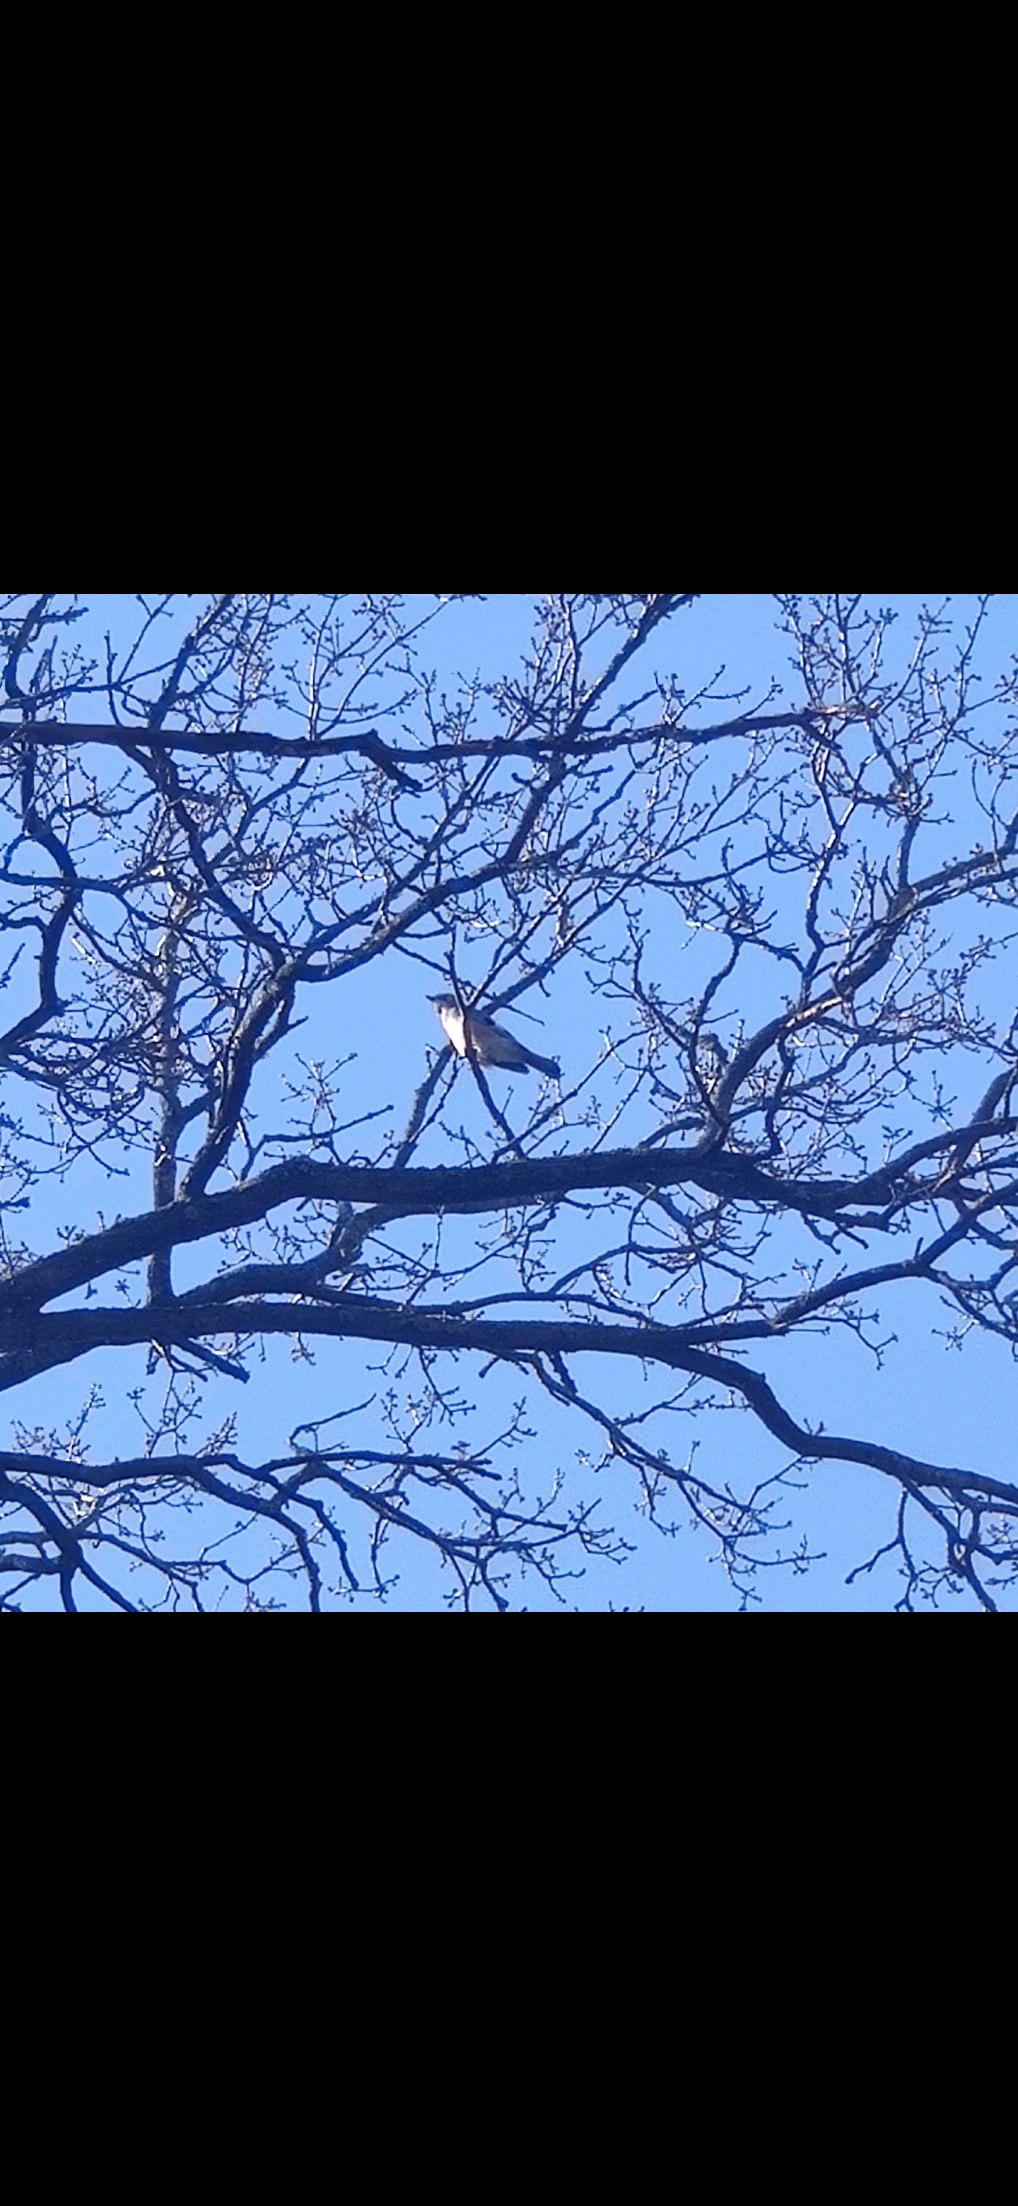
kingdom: Animalia
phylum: Chordata
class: Aves
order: Passeriformes
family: Corvidae
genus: Garrulus
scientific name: Garrulus glandarius
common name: Skovskade
